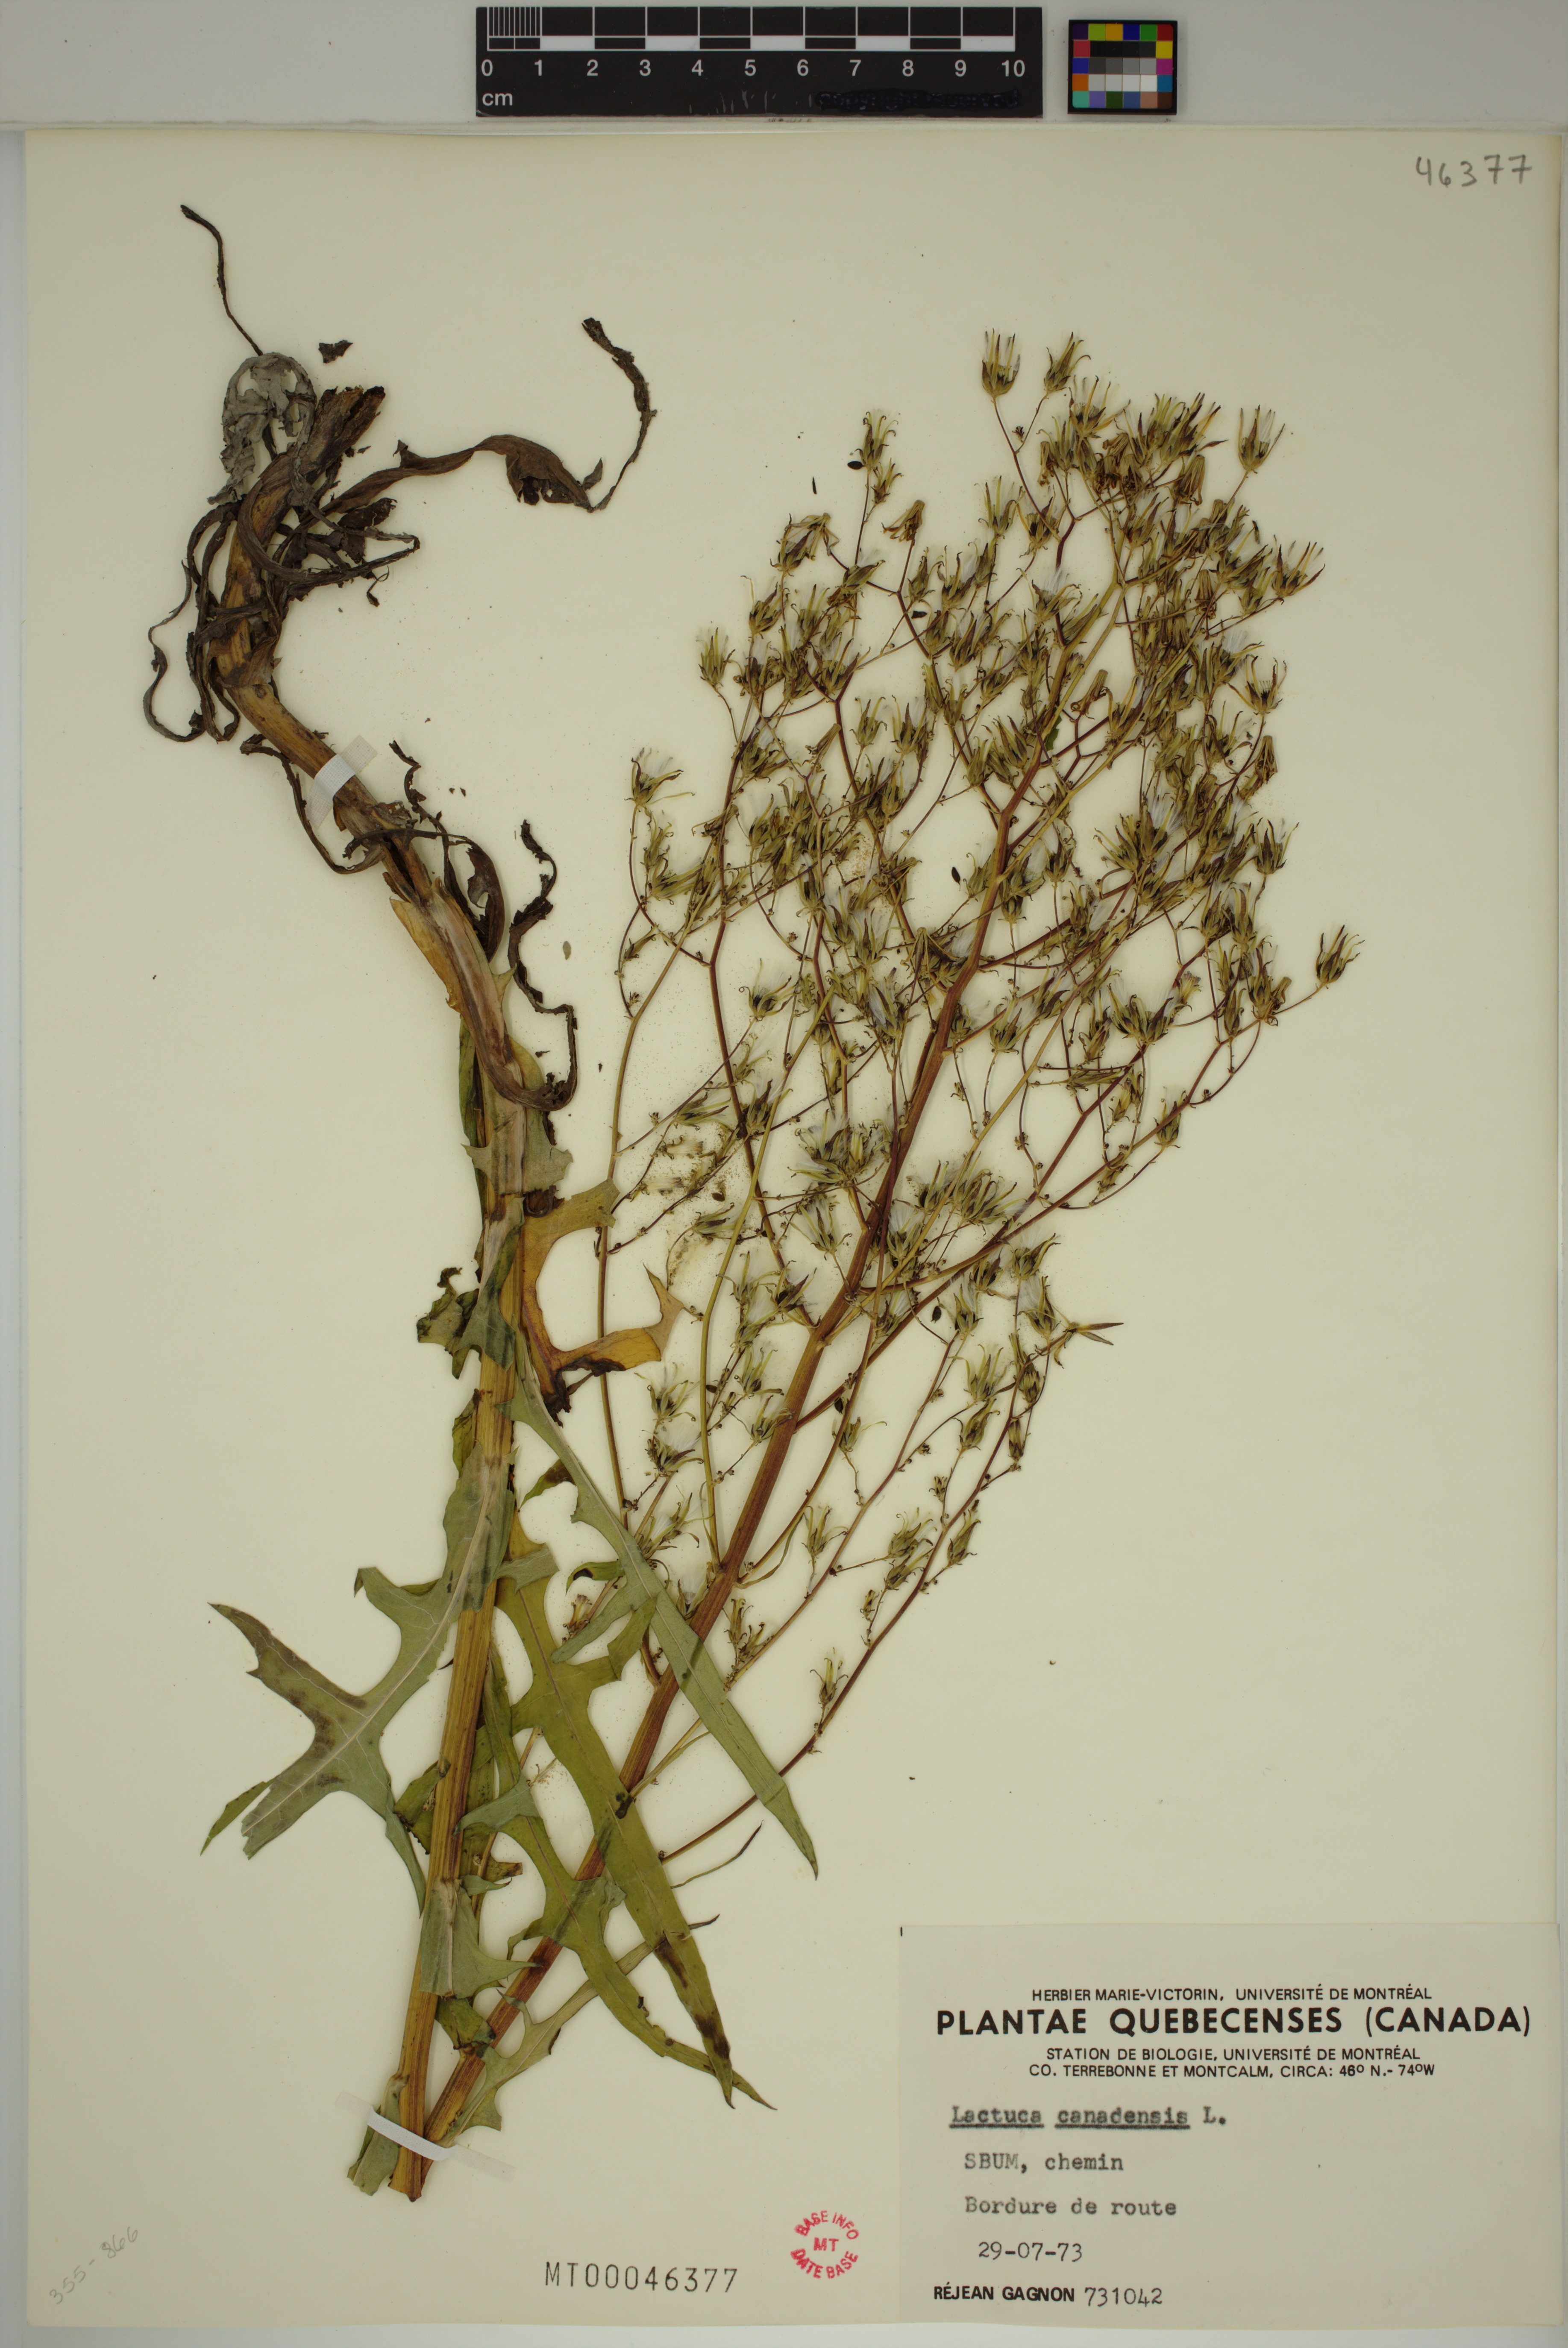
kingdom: Plantae
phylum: Tracheophyta
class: Magnoliopsida
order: Asterales
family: Asteraceae
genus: Lactuca
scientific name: Lactuca canadensis
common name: Canada lettuce
